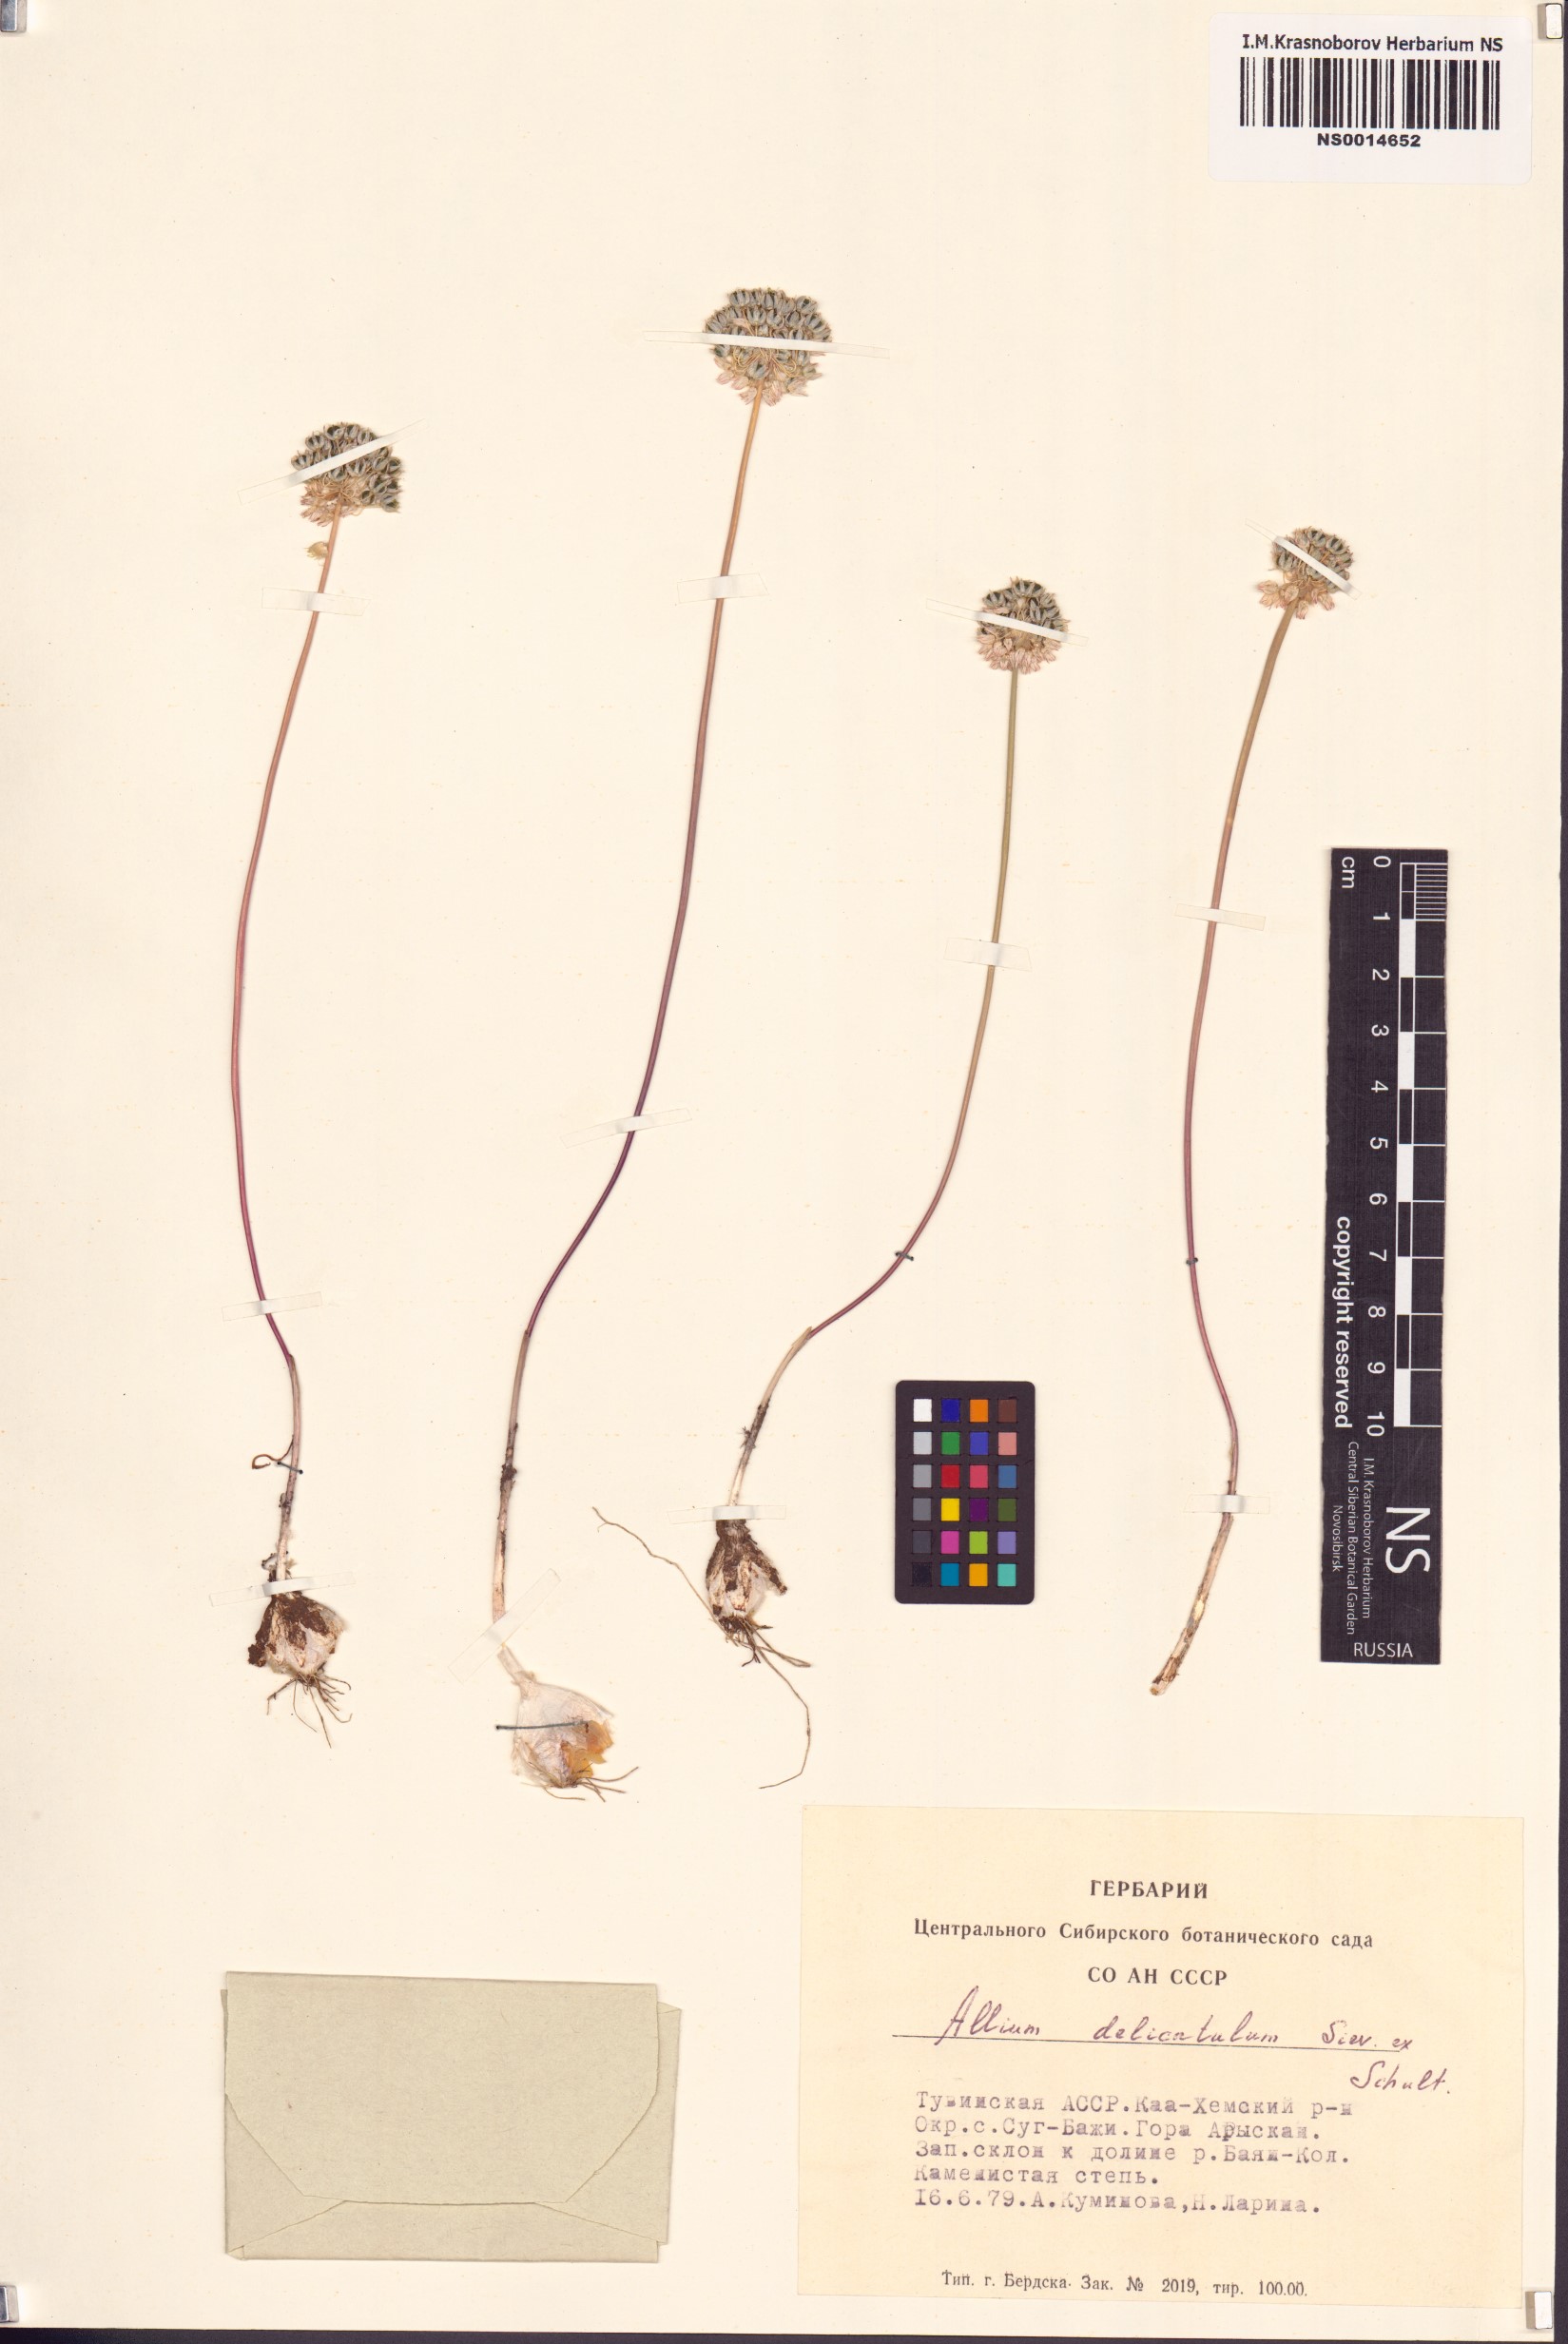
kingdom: Plantae
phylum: Tracheophyta
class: Liliopsida
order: Asparagales
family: Amaryllidaceae
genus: Allium
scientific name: Allium delicatulum
